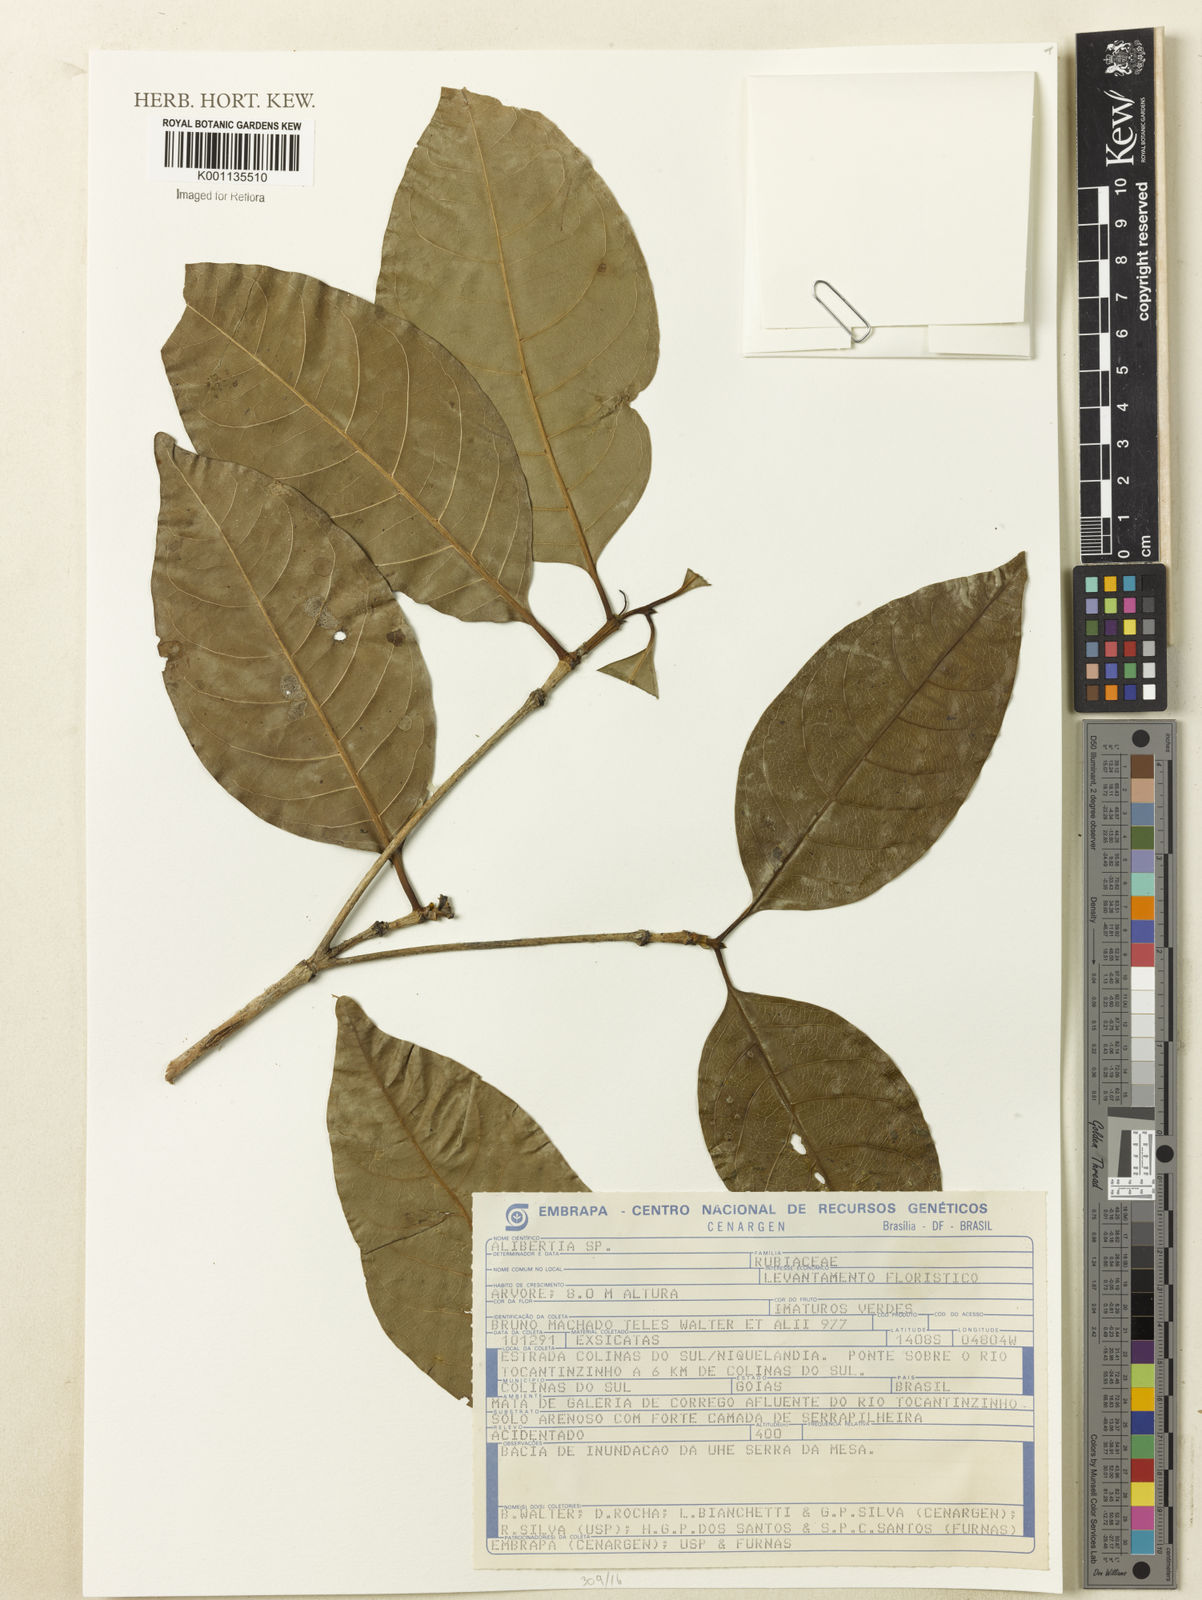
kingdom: Plantae
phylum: Tracheophyta
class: Magnoliopsida
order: Gentianales
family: Rubiaceae
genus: Cordiera
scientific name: Cordiera sessilis
